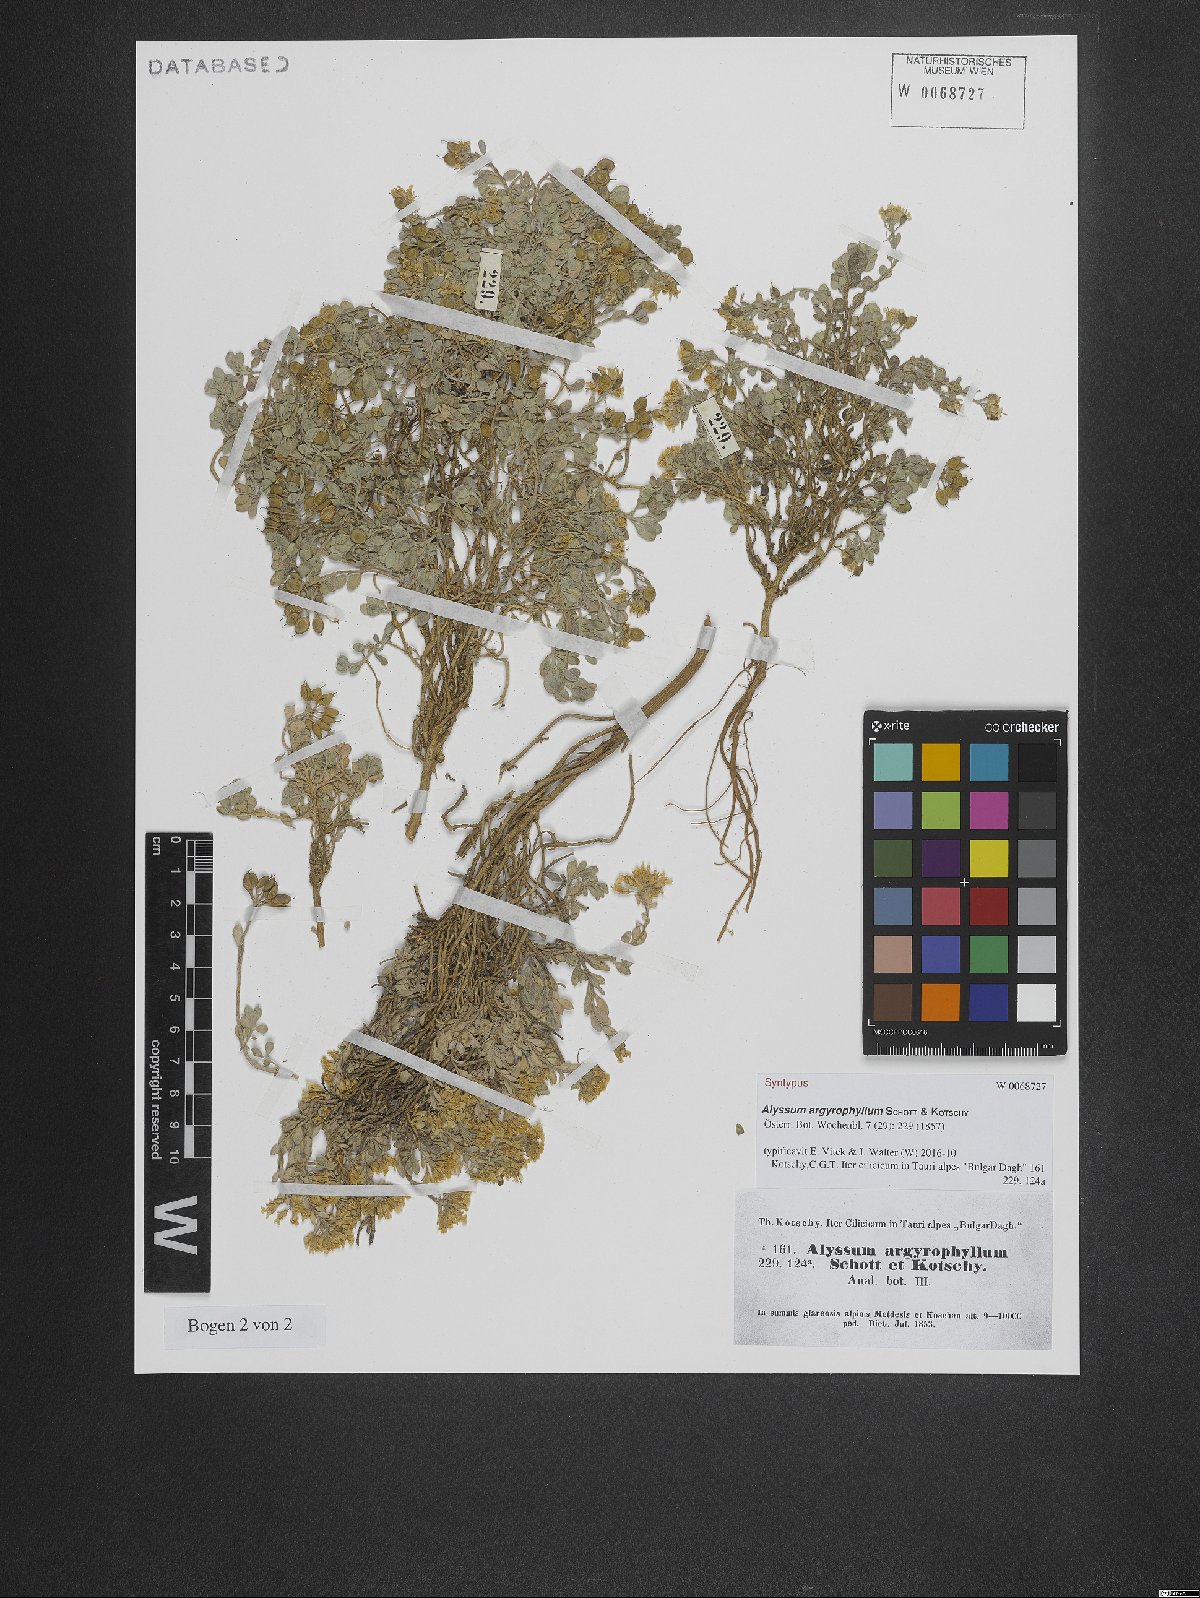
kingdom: Plantae
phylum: Tracheophyta
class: Magnoliopsida
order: Brassicales
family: Brassicaceae
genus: Alyssum
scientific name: Alyssum argyrophyllum
